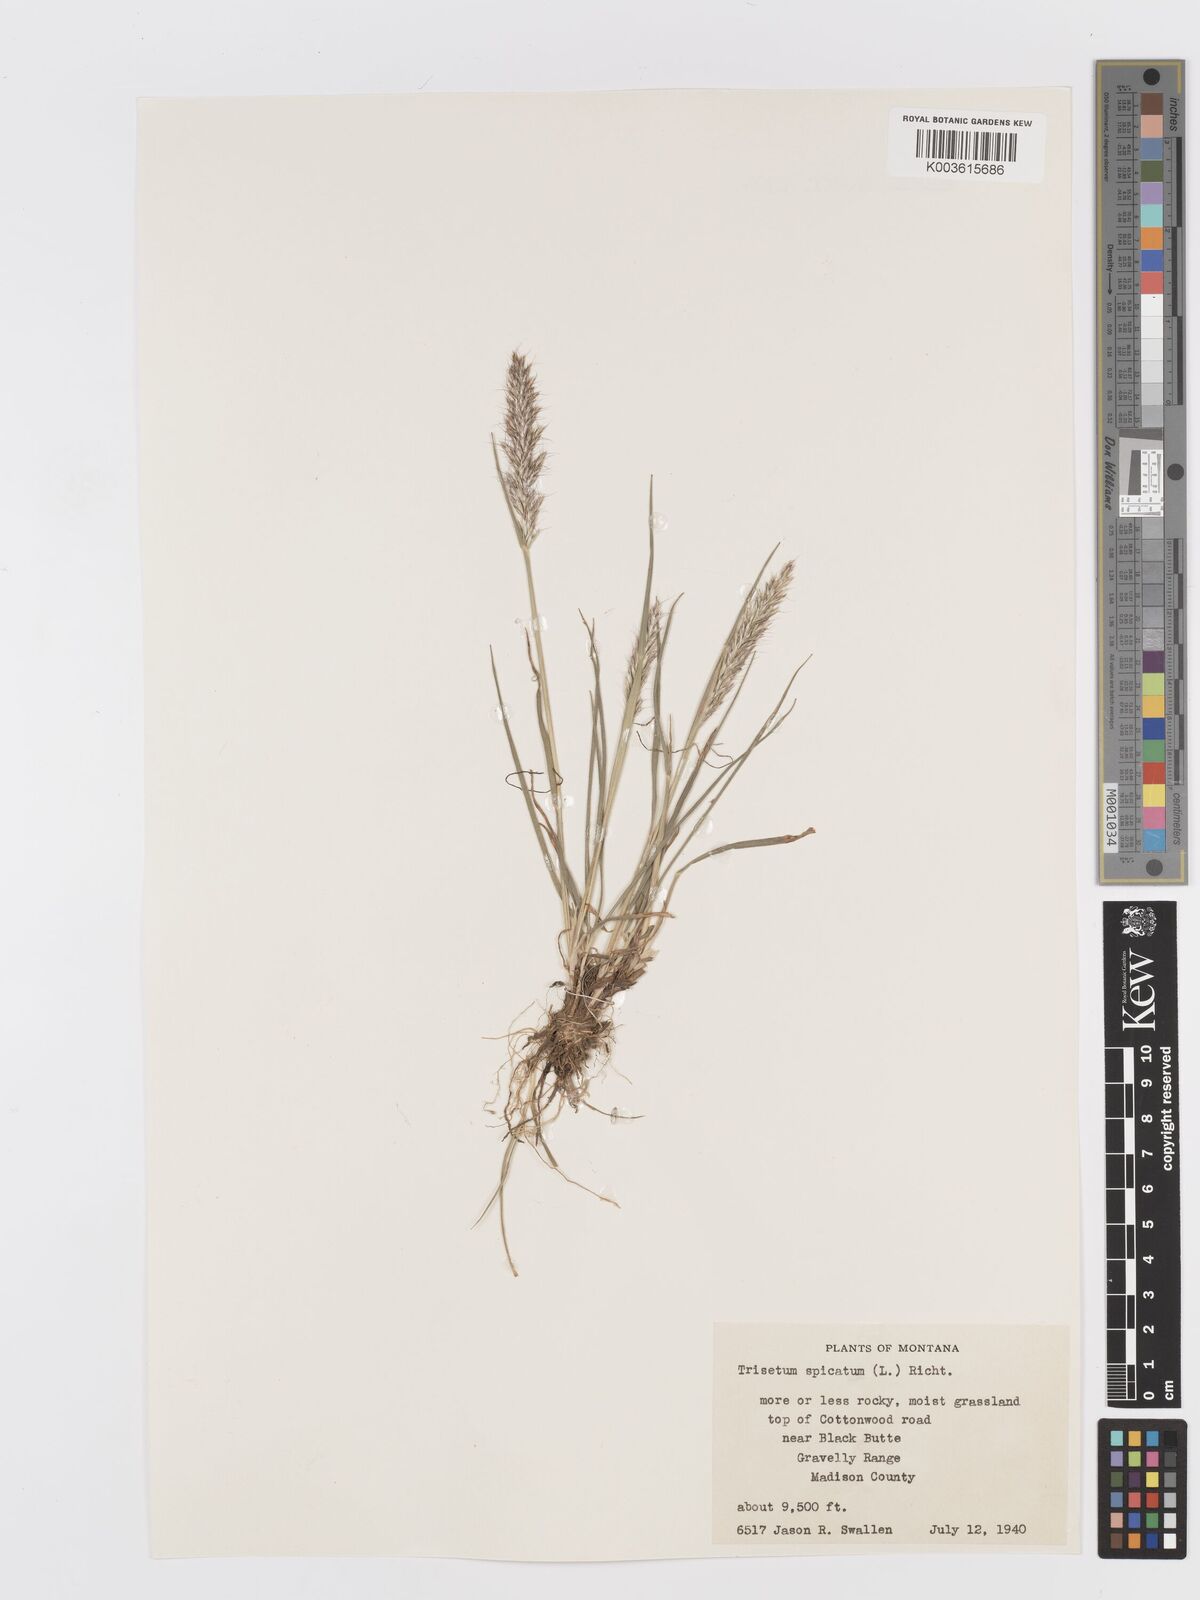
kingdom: Plantae
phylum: Tracheophyta
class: Liliopsida
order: Poales
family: Poaceae
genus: Koeleria
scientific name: Koeleria spicata
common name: Mountain trisetum
